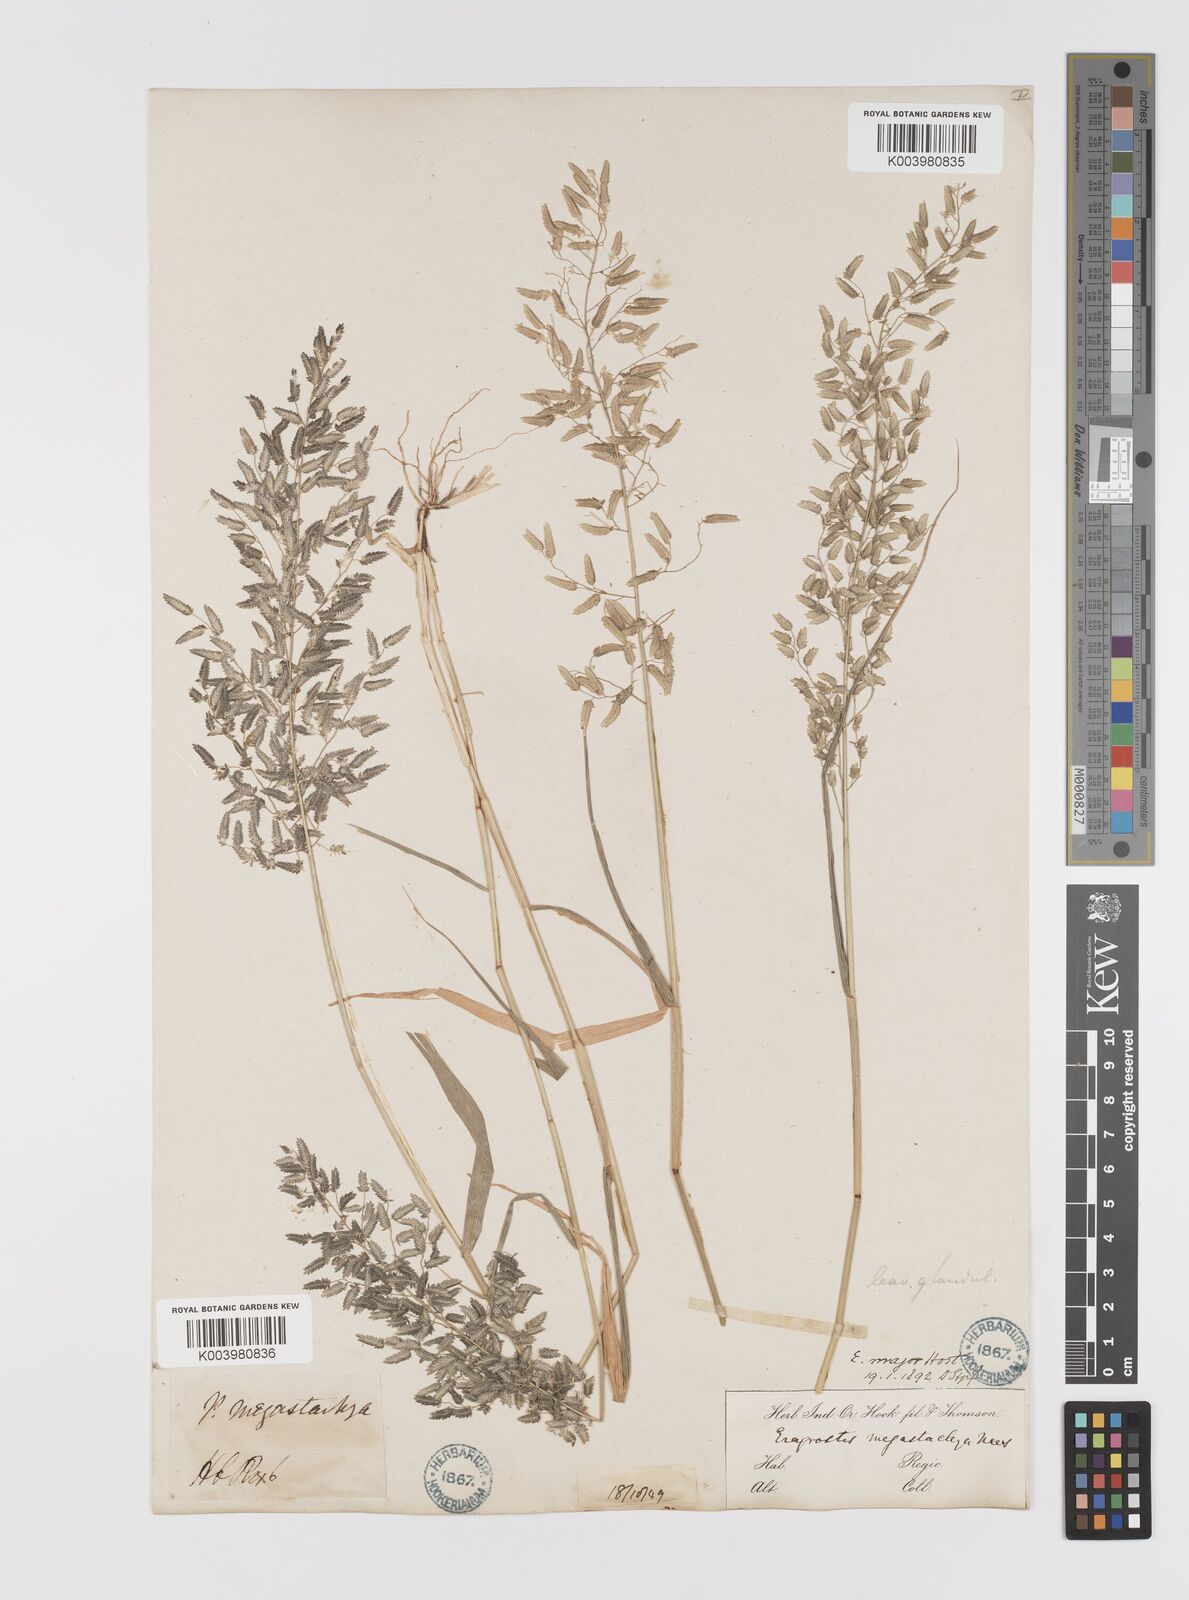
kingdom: Plantae
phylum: Tracheophyta
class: Liliopsida
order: Poales
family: Poaceae
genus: Eragrostis
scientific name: Eragrostis cilianensis
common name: Stinkgrass
